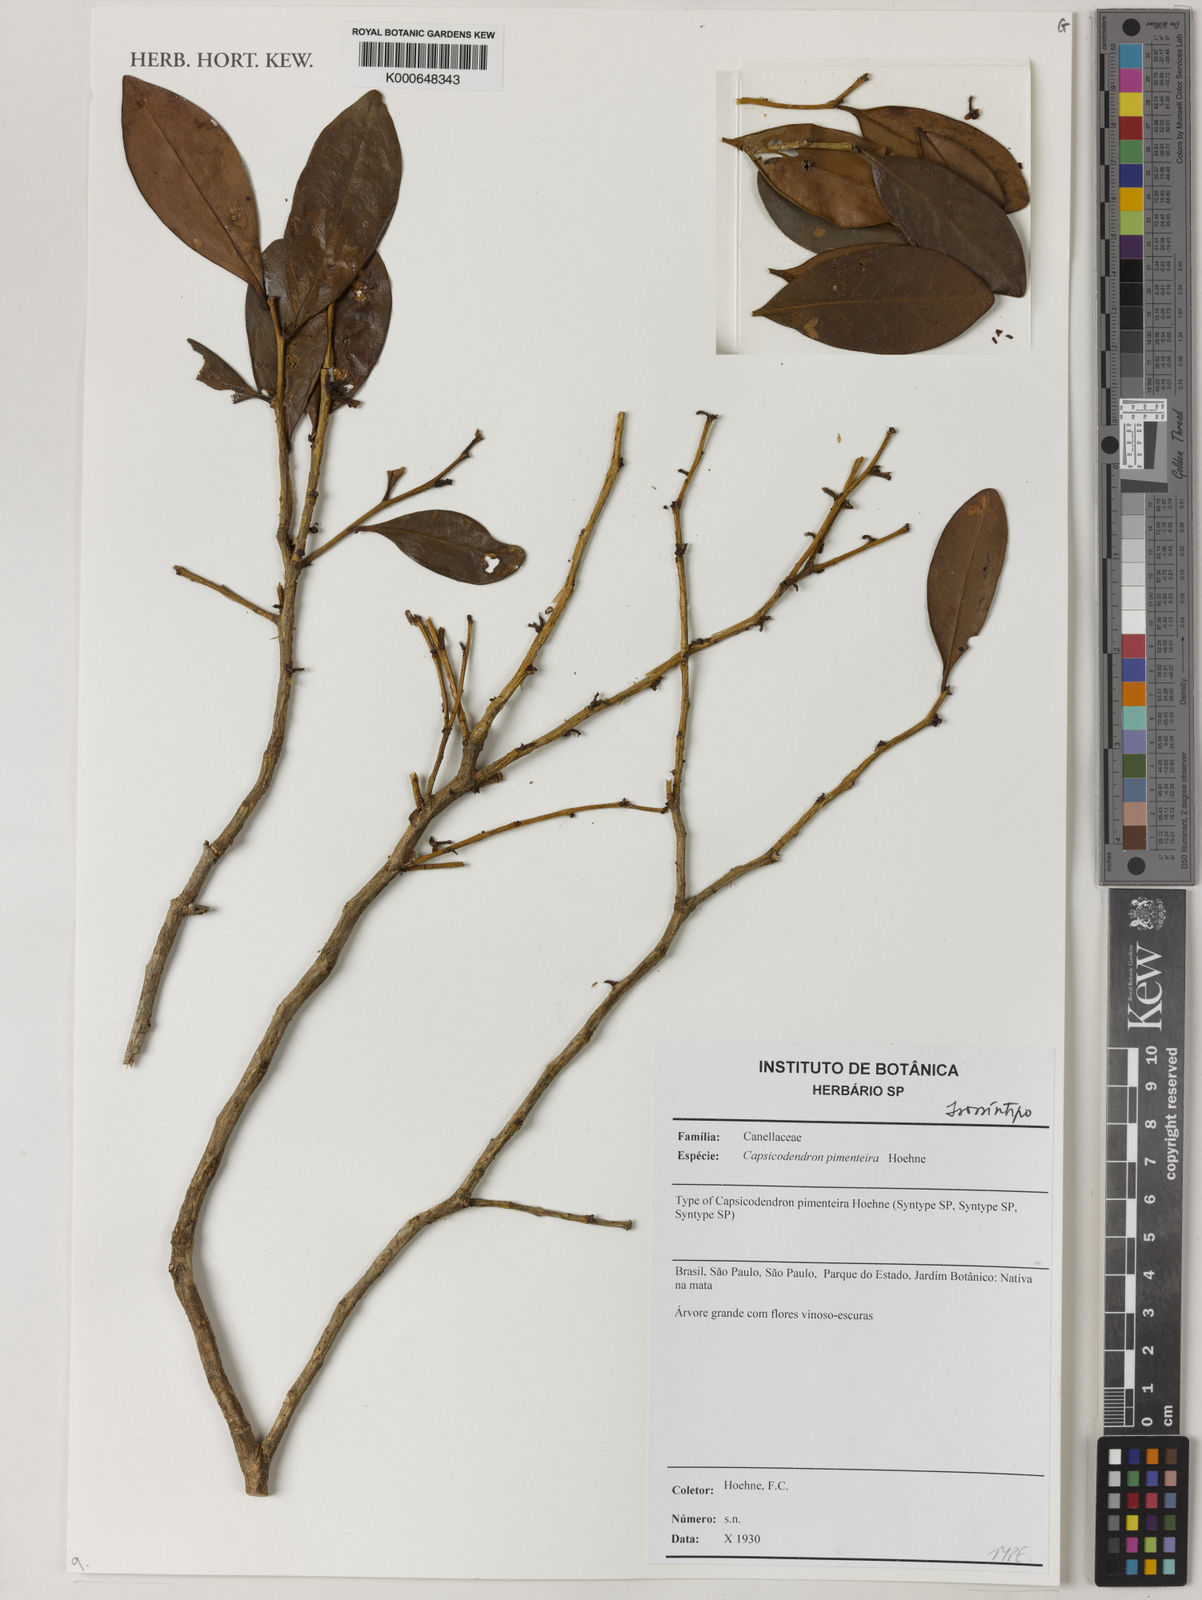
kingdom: Plantae
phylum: Tracheophyta
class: Magnoliopsida
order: Canellales
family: Canellaceae
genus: Cinnamodendron
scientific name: Cinnamodendron dinisii
